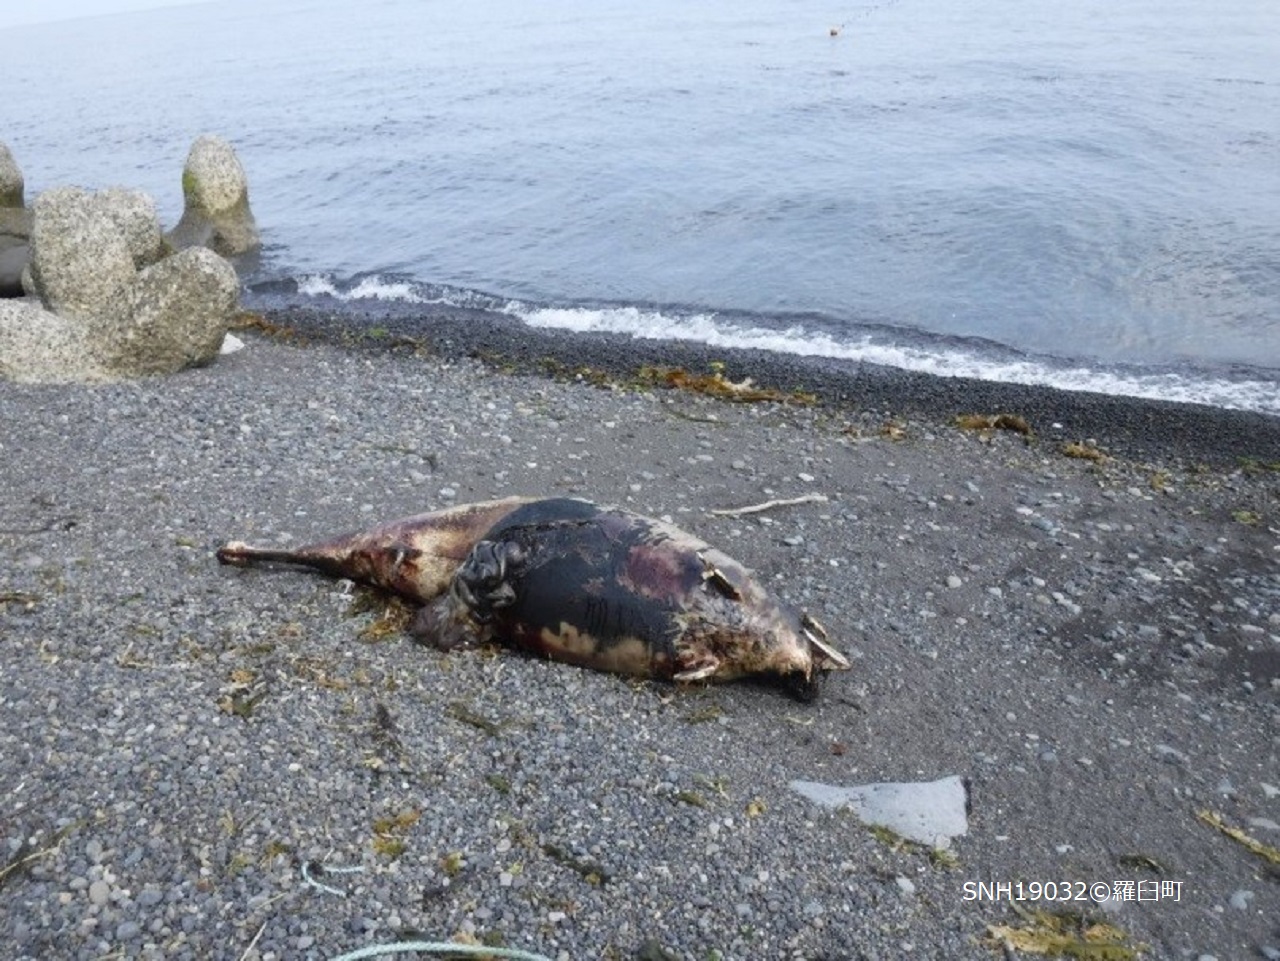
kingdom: Animalia
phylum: Chordata
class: Mammalia
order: Cetacea
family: Phocoenidae
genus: Phocoenoides
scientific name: Phocoenoides dalli
